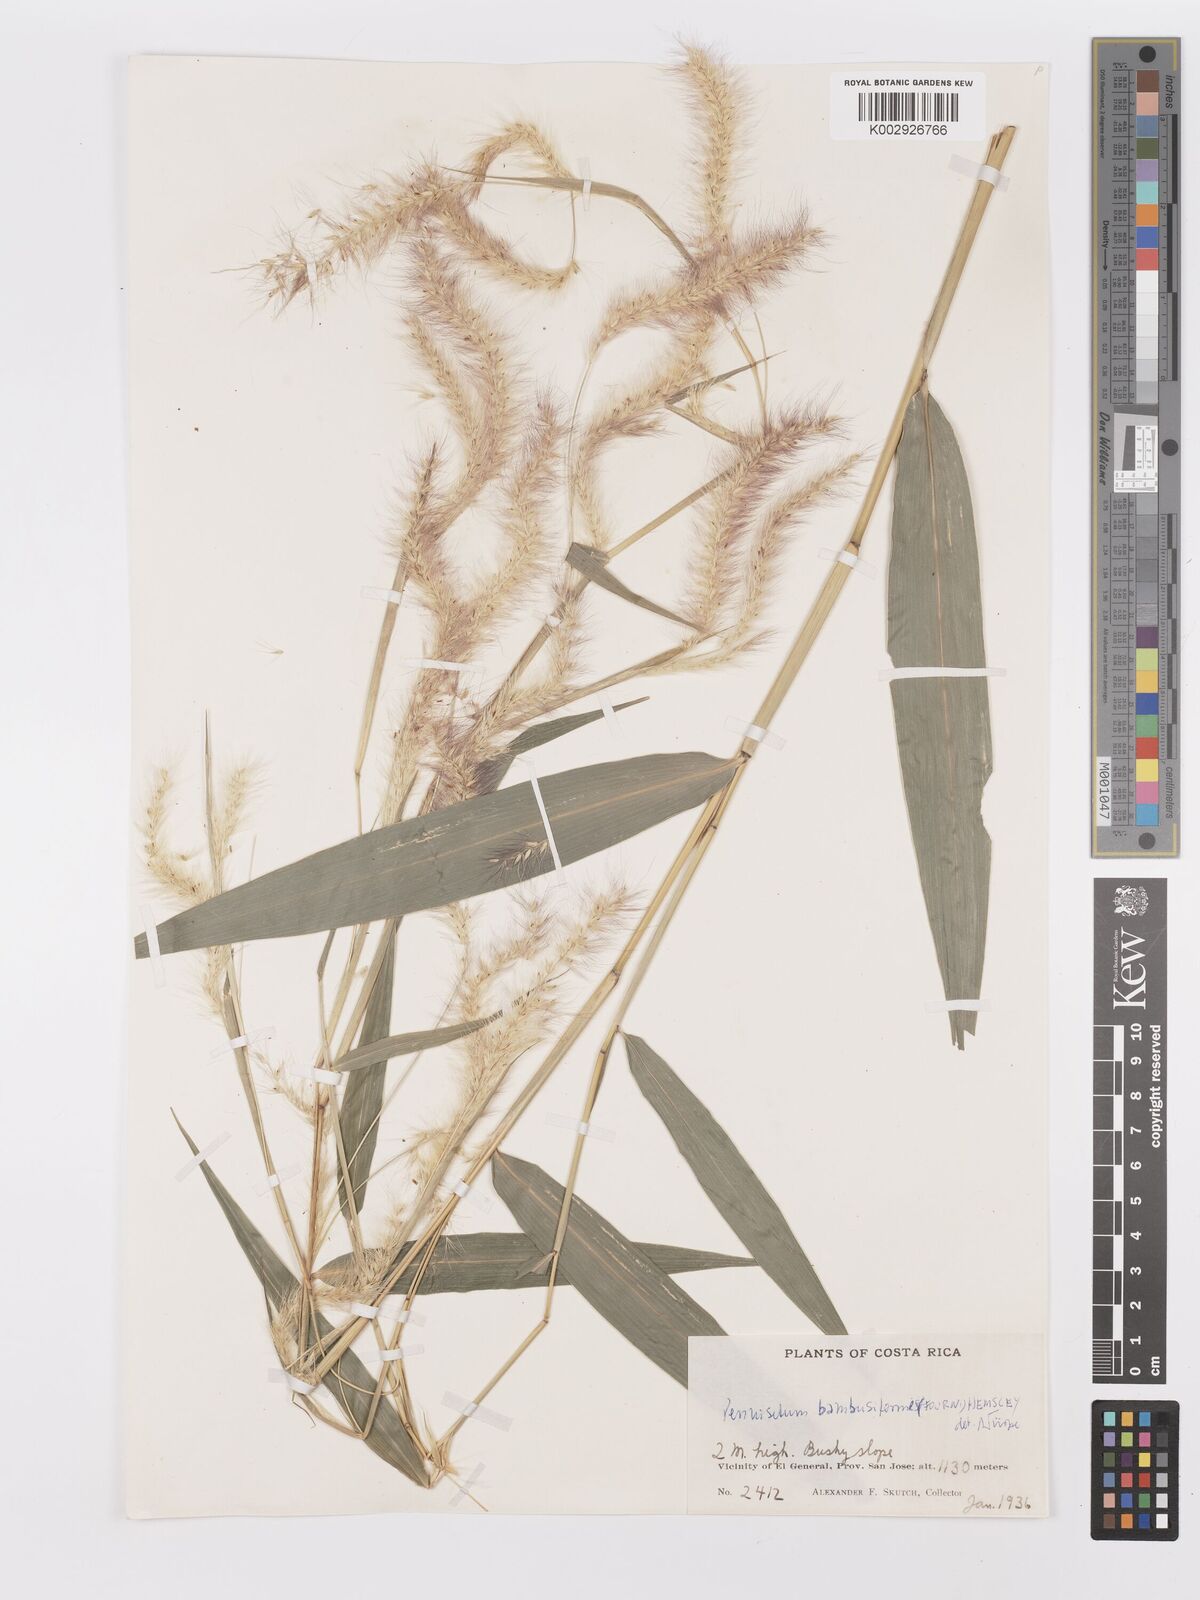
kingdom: Plantae
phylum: Tracheophyta
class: Liliopsida
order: Poales
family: Poaceae
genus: Cenchrus
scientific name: Cenchrus preslii
